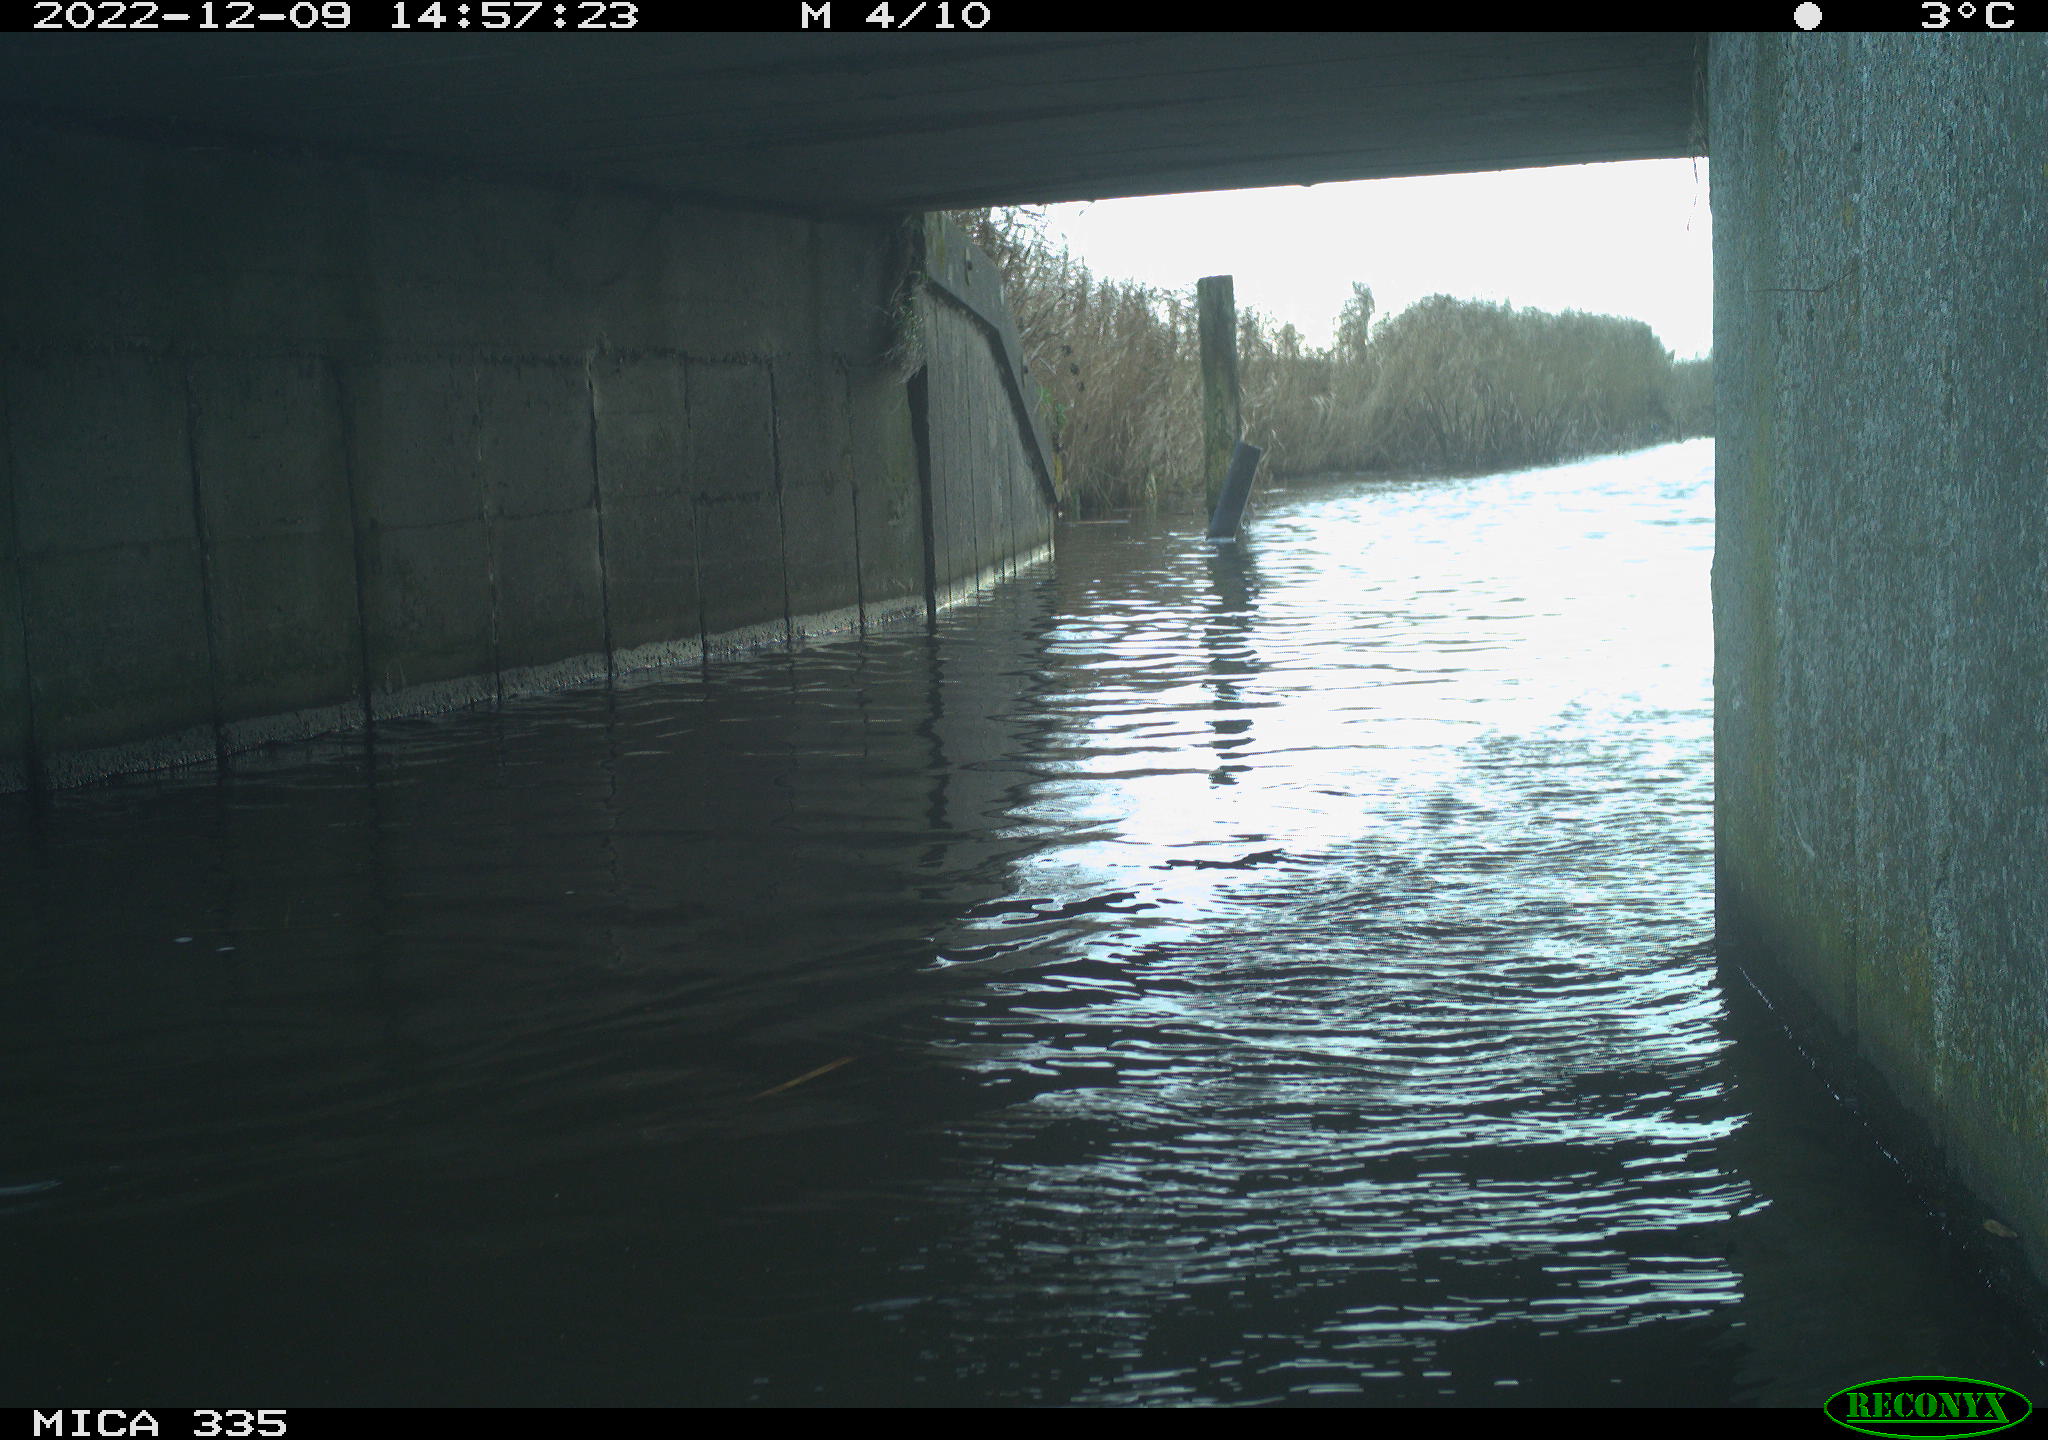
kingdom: Animalia
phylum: Chordata
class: Aves
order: Anseriformes
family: Anatidae
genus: Anas
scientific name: Anas
